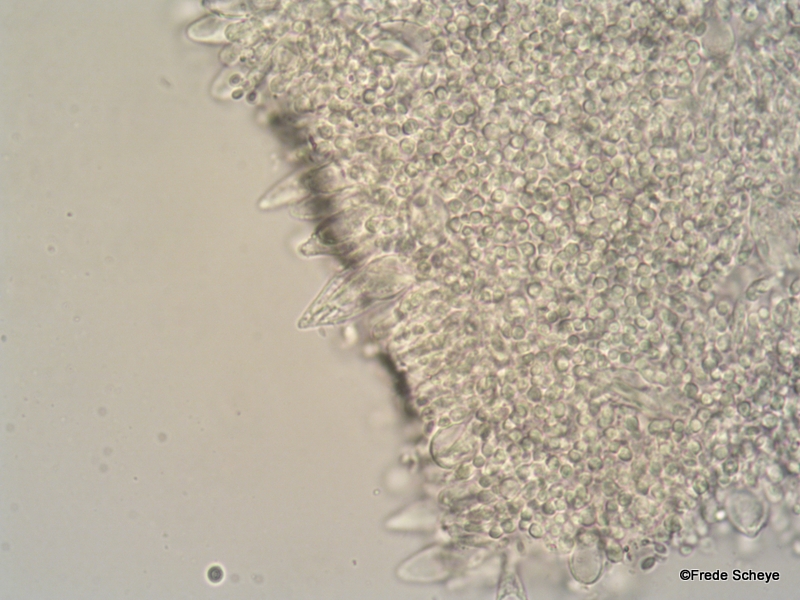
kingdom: Fungi
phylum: Basidiomycota
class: Agaricomycetes
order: Agaricales
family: Marasmiaceae
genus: Baeospora
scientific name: Baeospora myosura
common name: koglebruskhat
